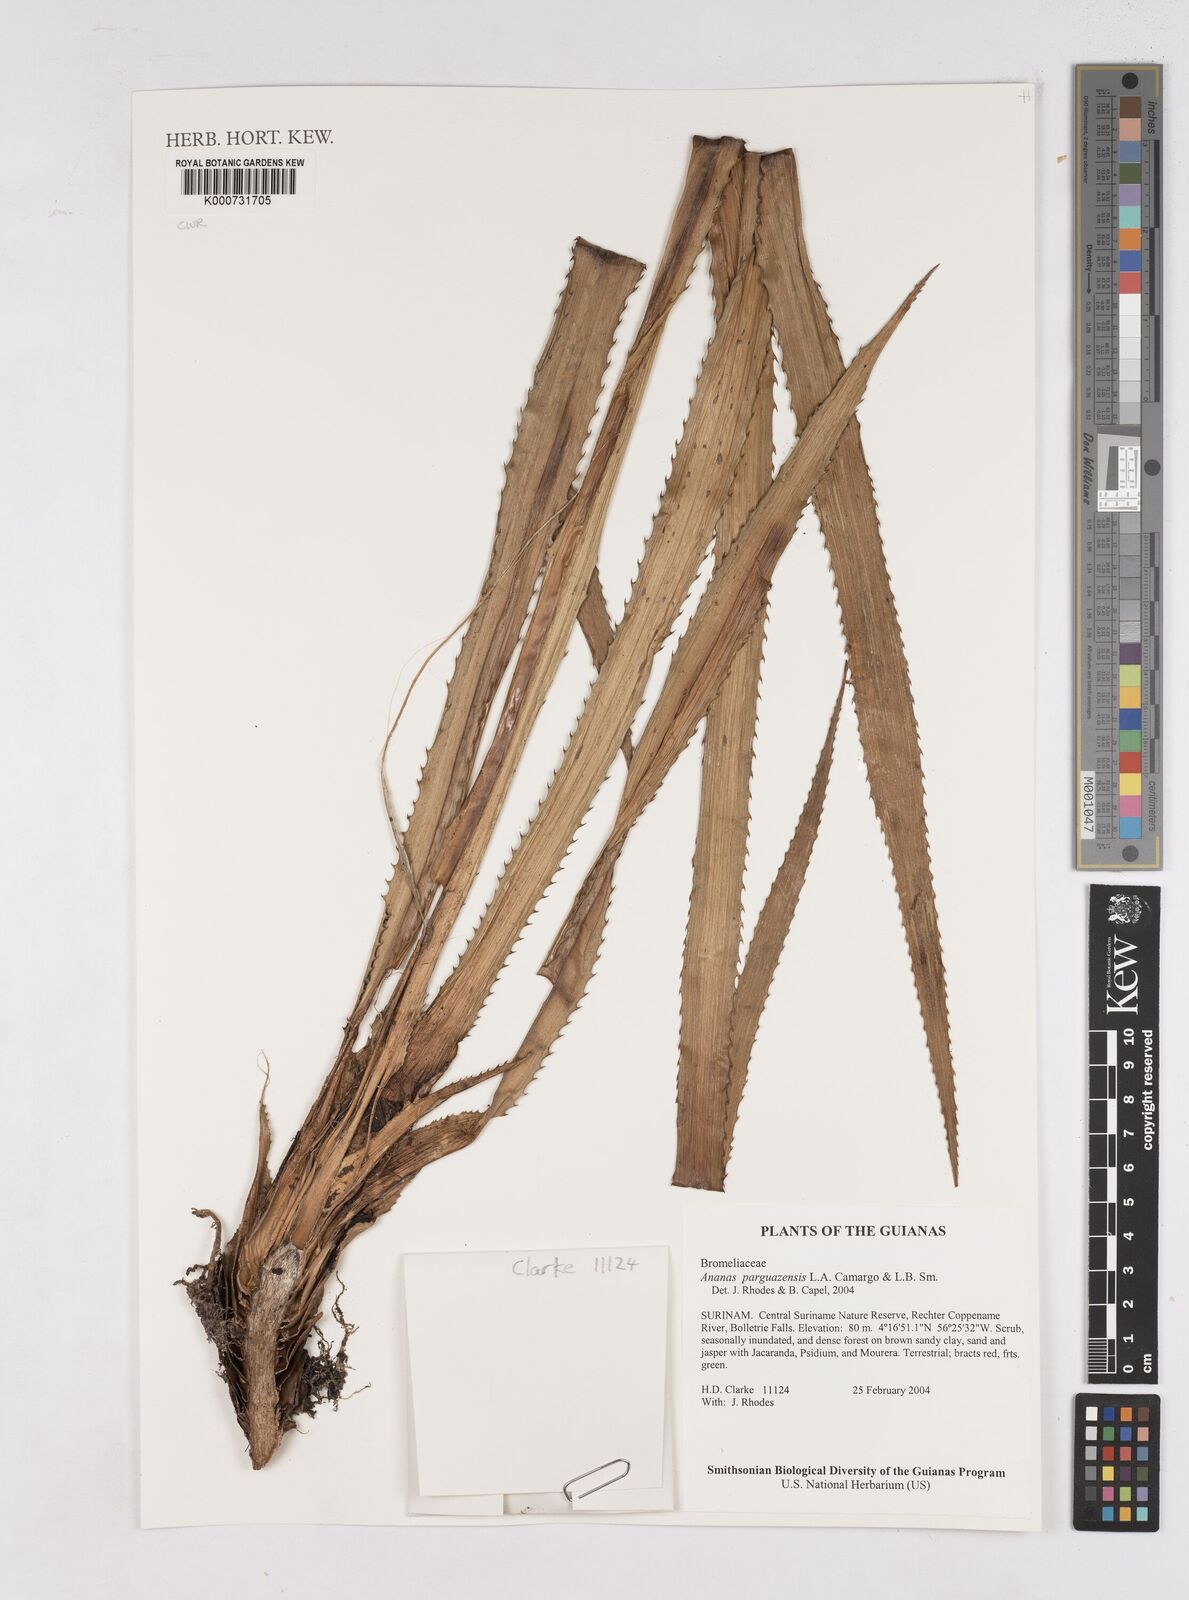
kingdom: Plantae
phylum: Tracheophyta
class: Liliopsida
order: Poales
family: Bromeliaceae
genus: Ananas
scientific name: Ananas comosus
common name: Pineapple
